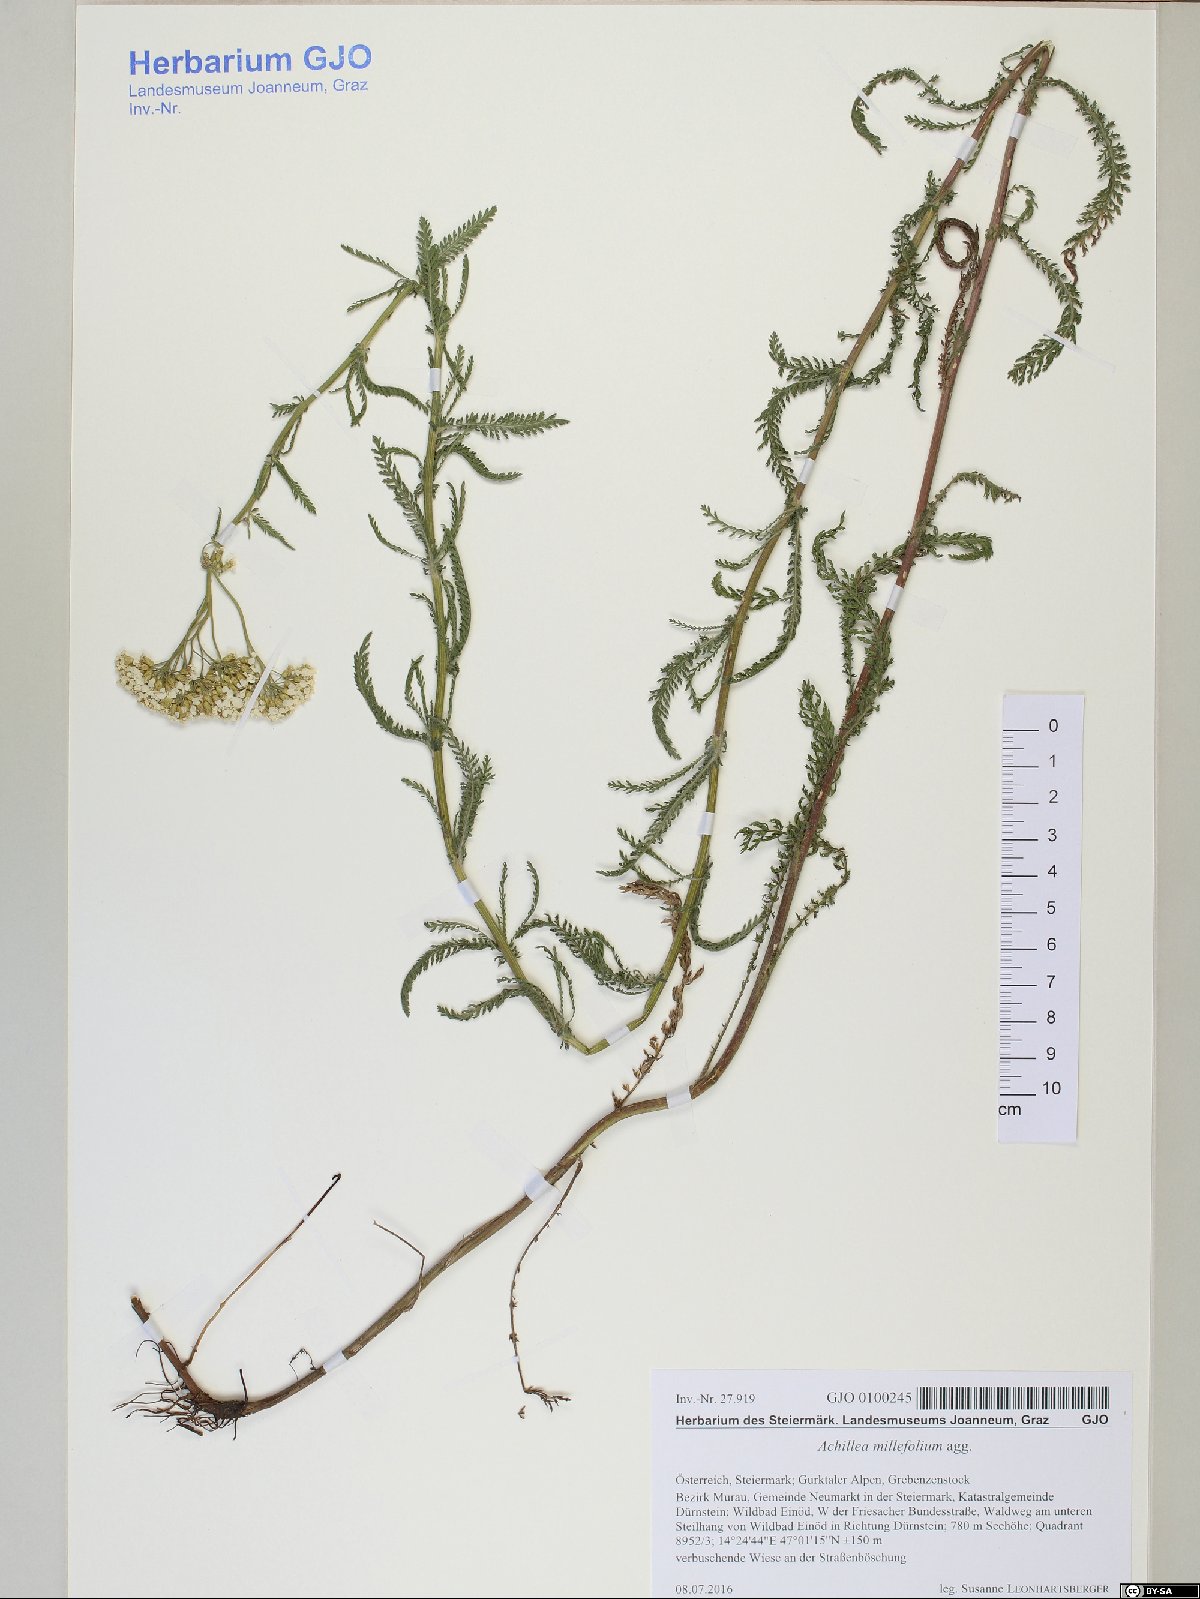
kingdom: Plantae
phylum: Tracheophyta
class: Magnoliopsida
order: Asterales
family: Asteraceae
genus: Achillea
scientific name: Achillea millefolium
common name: Yarrow
